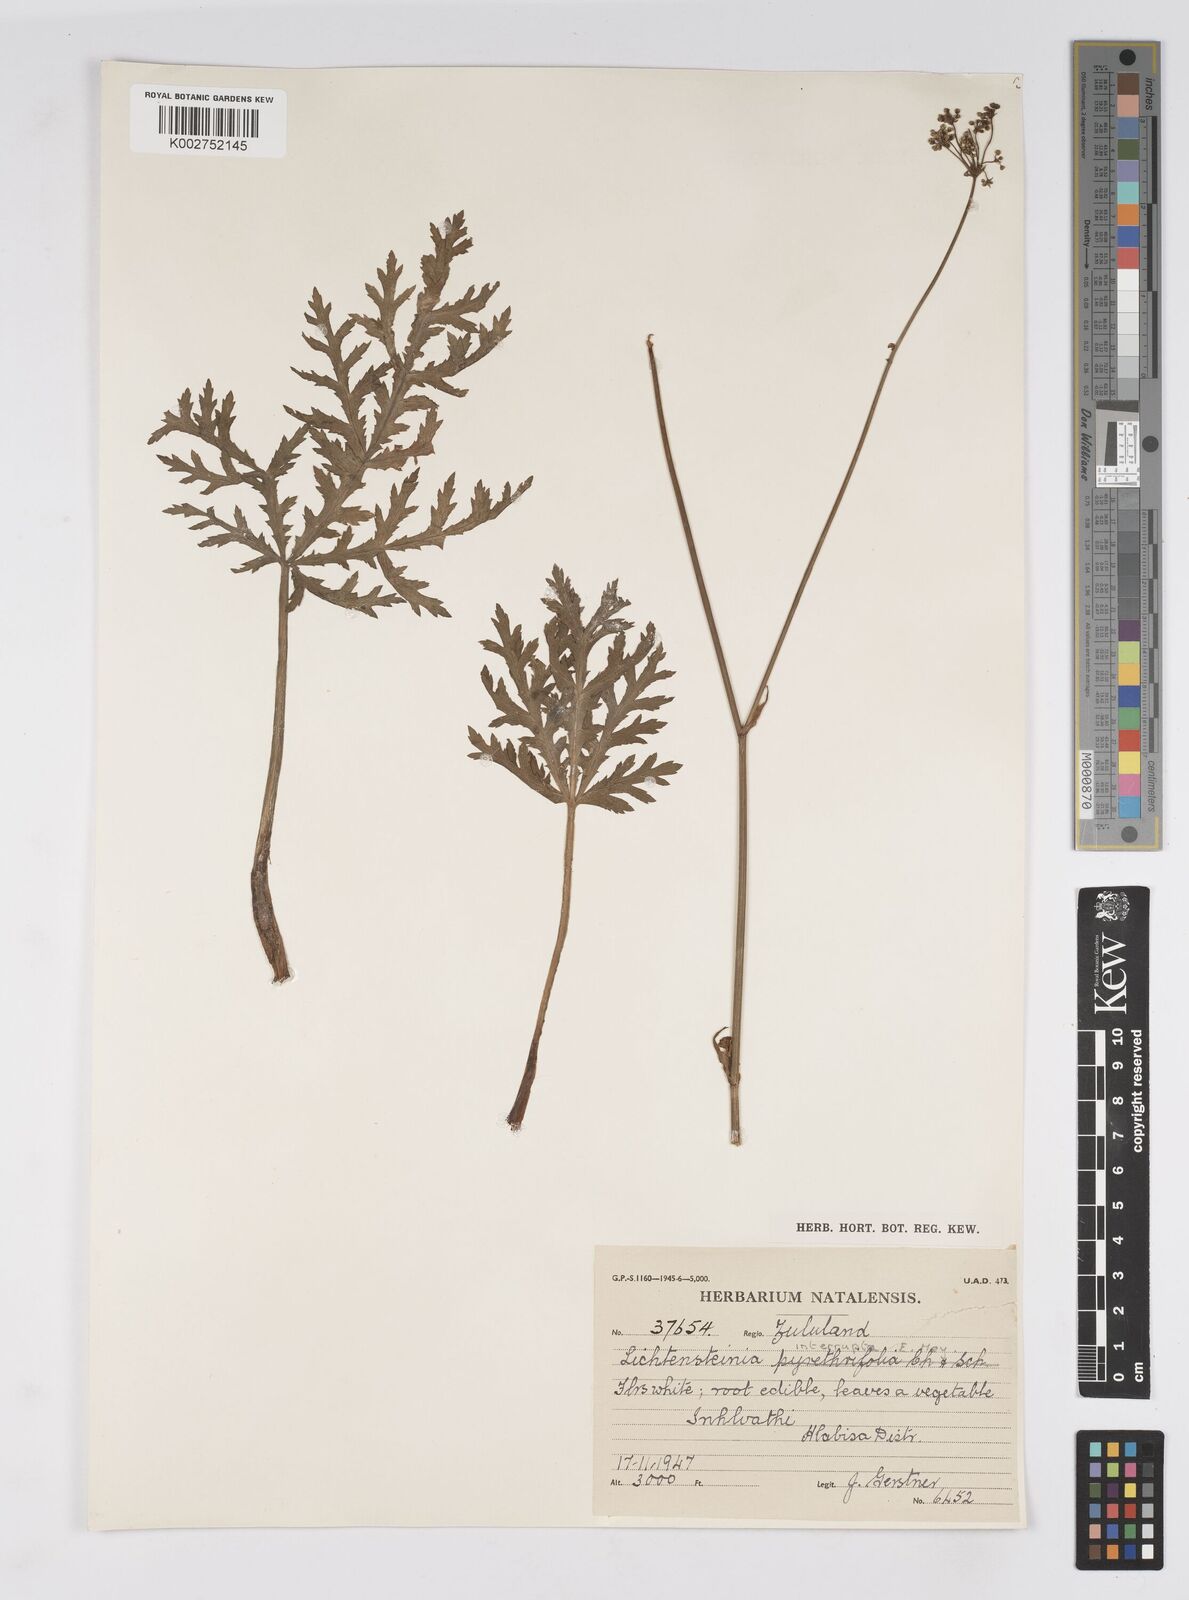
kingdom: Plantae
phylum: Tracheophyta
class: Magnoliopsida
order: Apiales
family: Apiaceae
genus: Lichtensteinia
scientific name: Lichtensteinia interrupta
